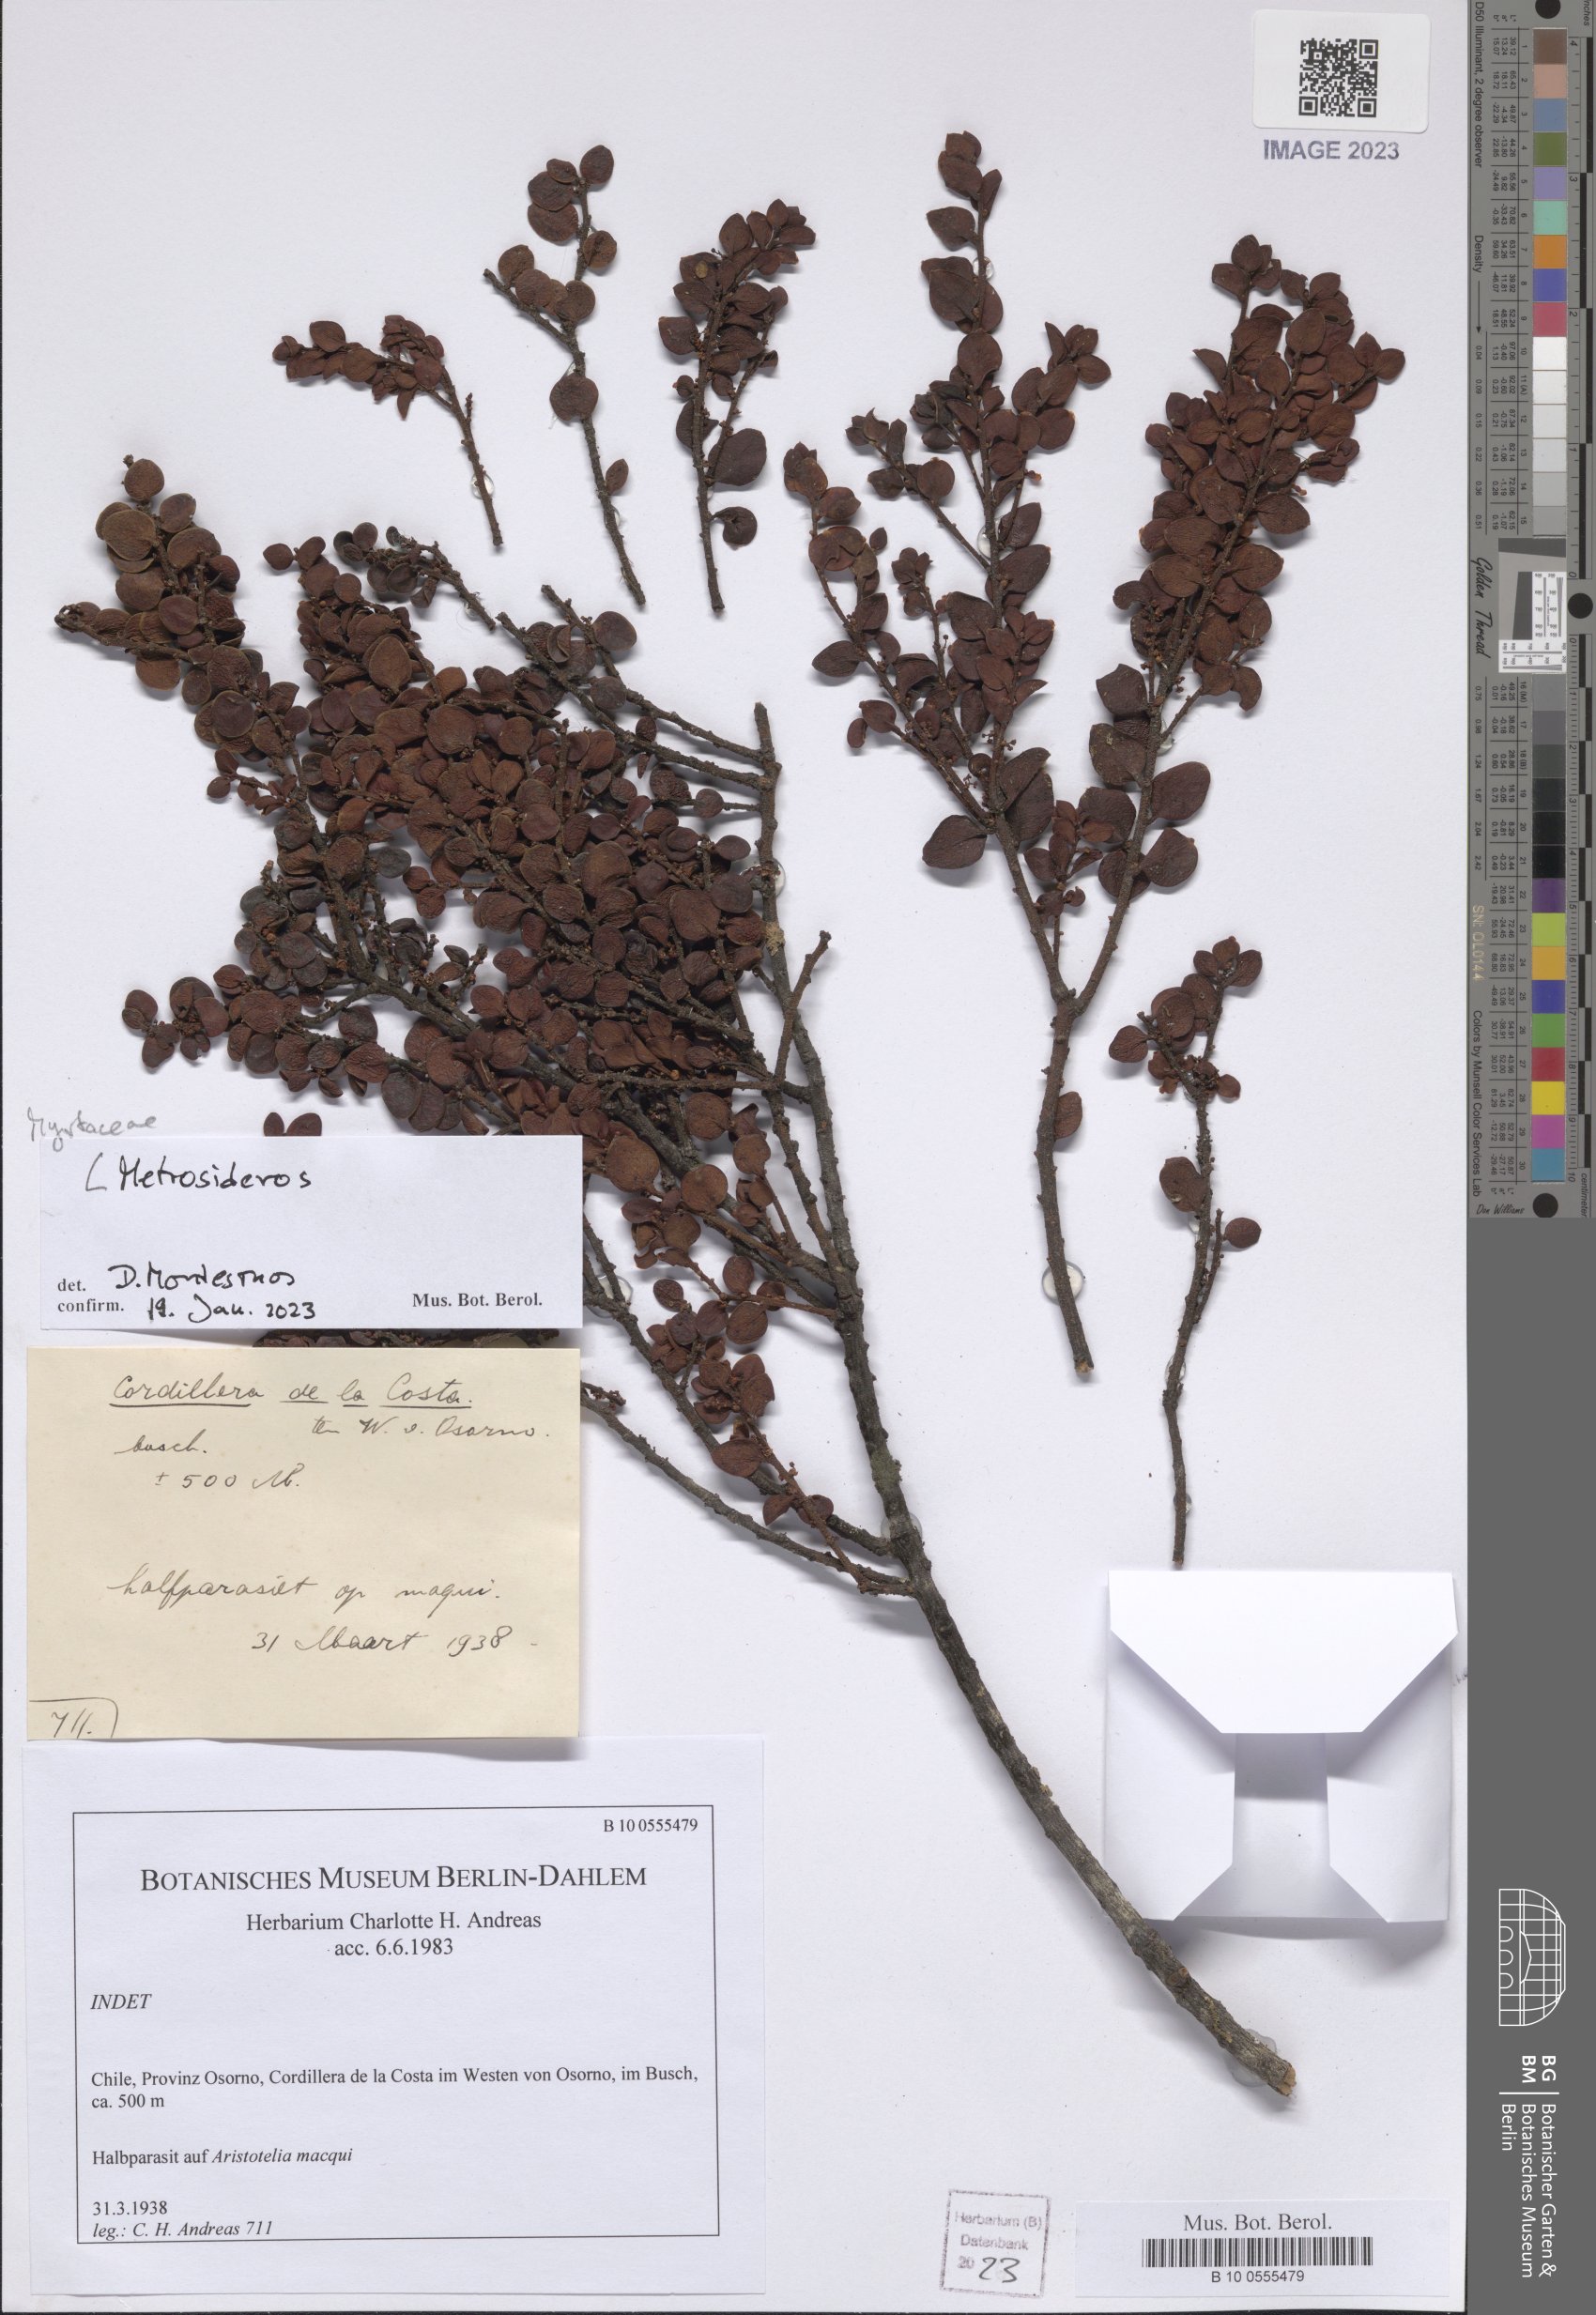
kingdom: Plantae
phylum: Tracheophyta
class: Magnoliopsida
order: Myrtales
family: Myrtaceae
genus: Metrosideros
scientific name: Metrosideros
